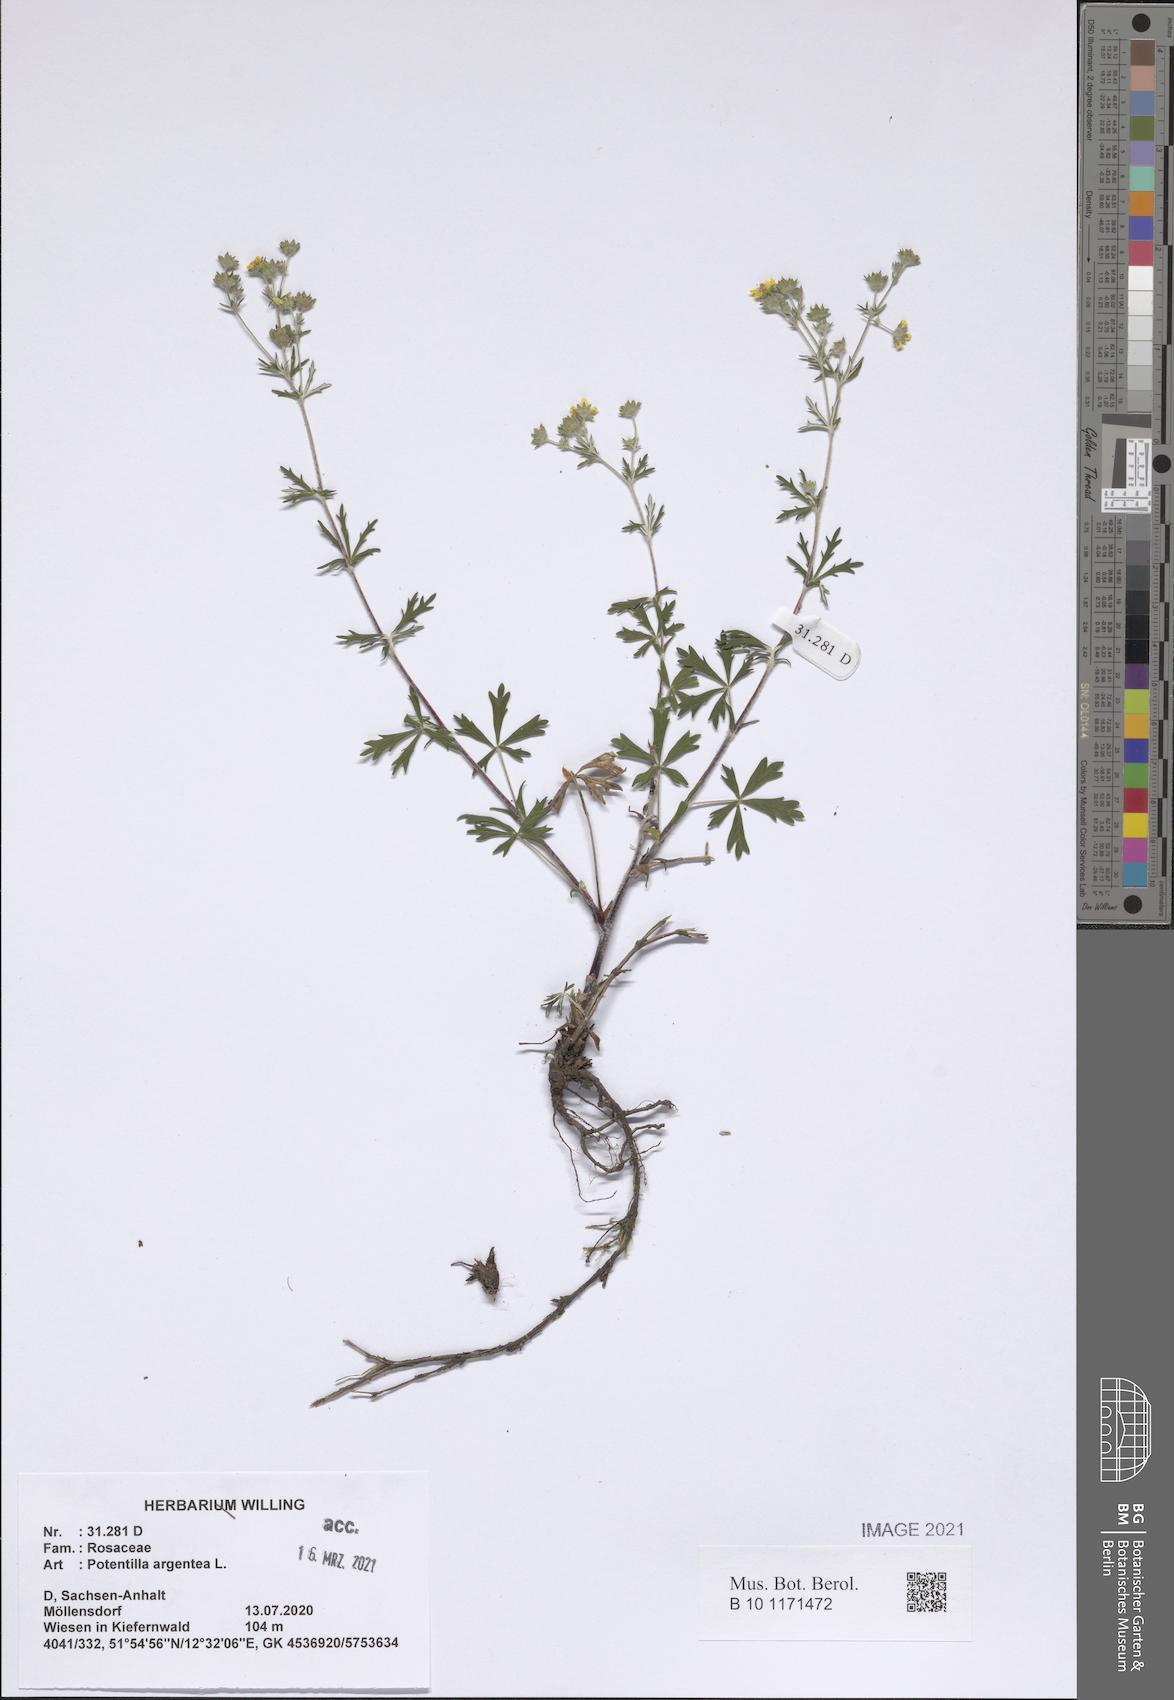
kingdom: Plantae
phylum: Tracheophyta
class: Magnoliopsida
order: Rosales
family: Rosaceae
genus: Potentilla
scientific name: Potentilla argentea
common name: Hoary cinquefoil
